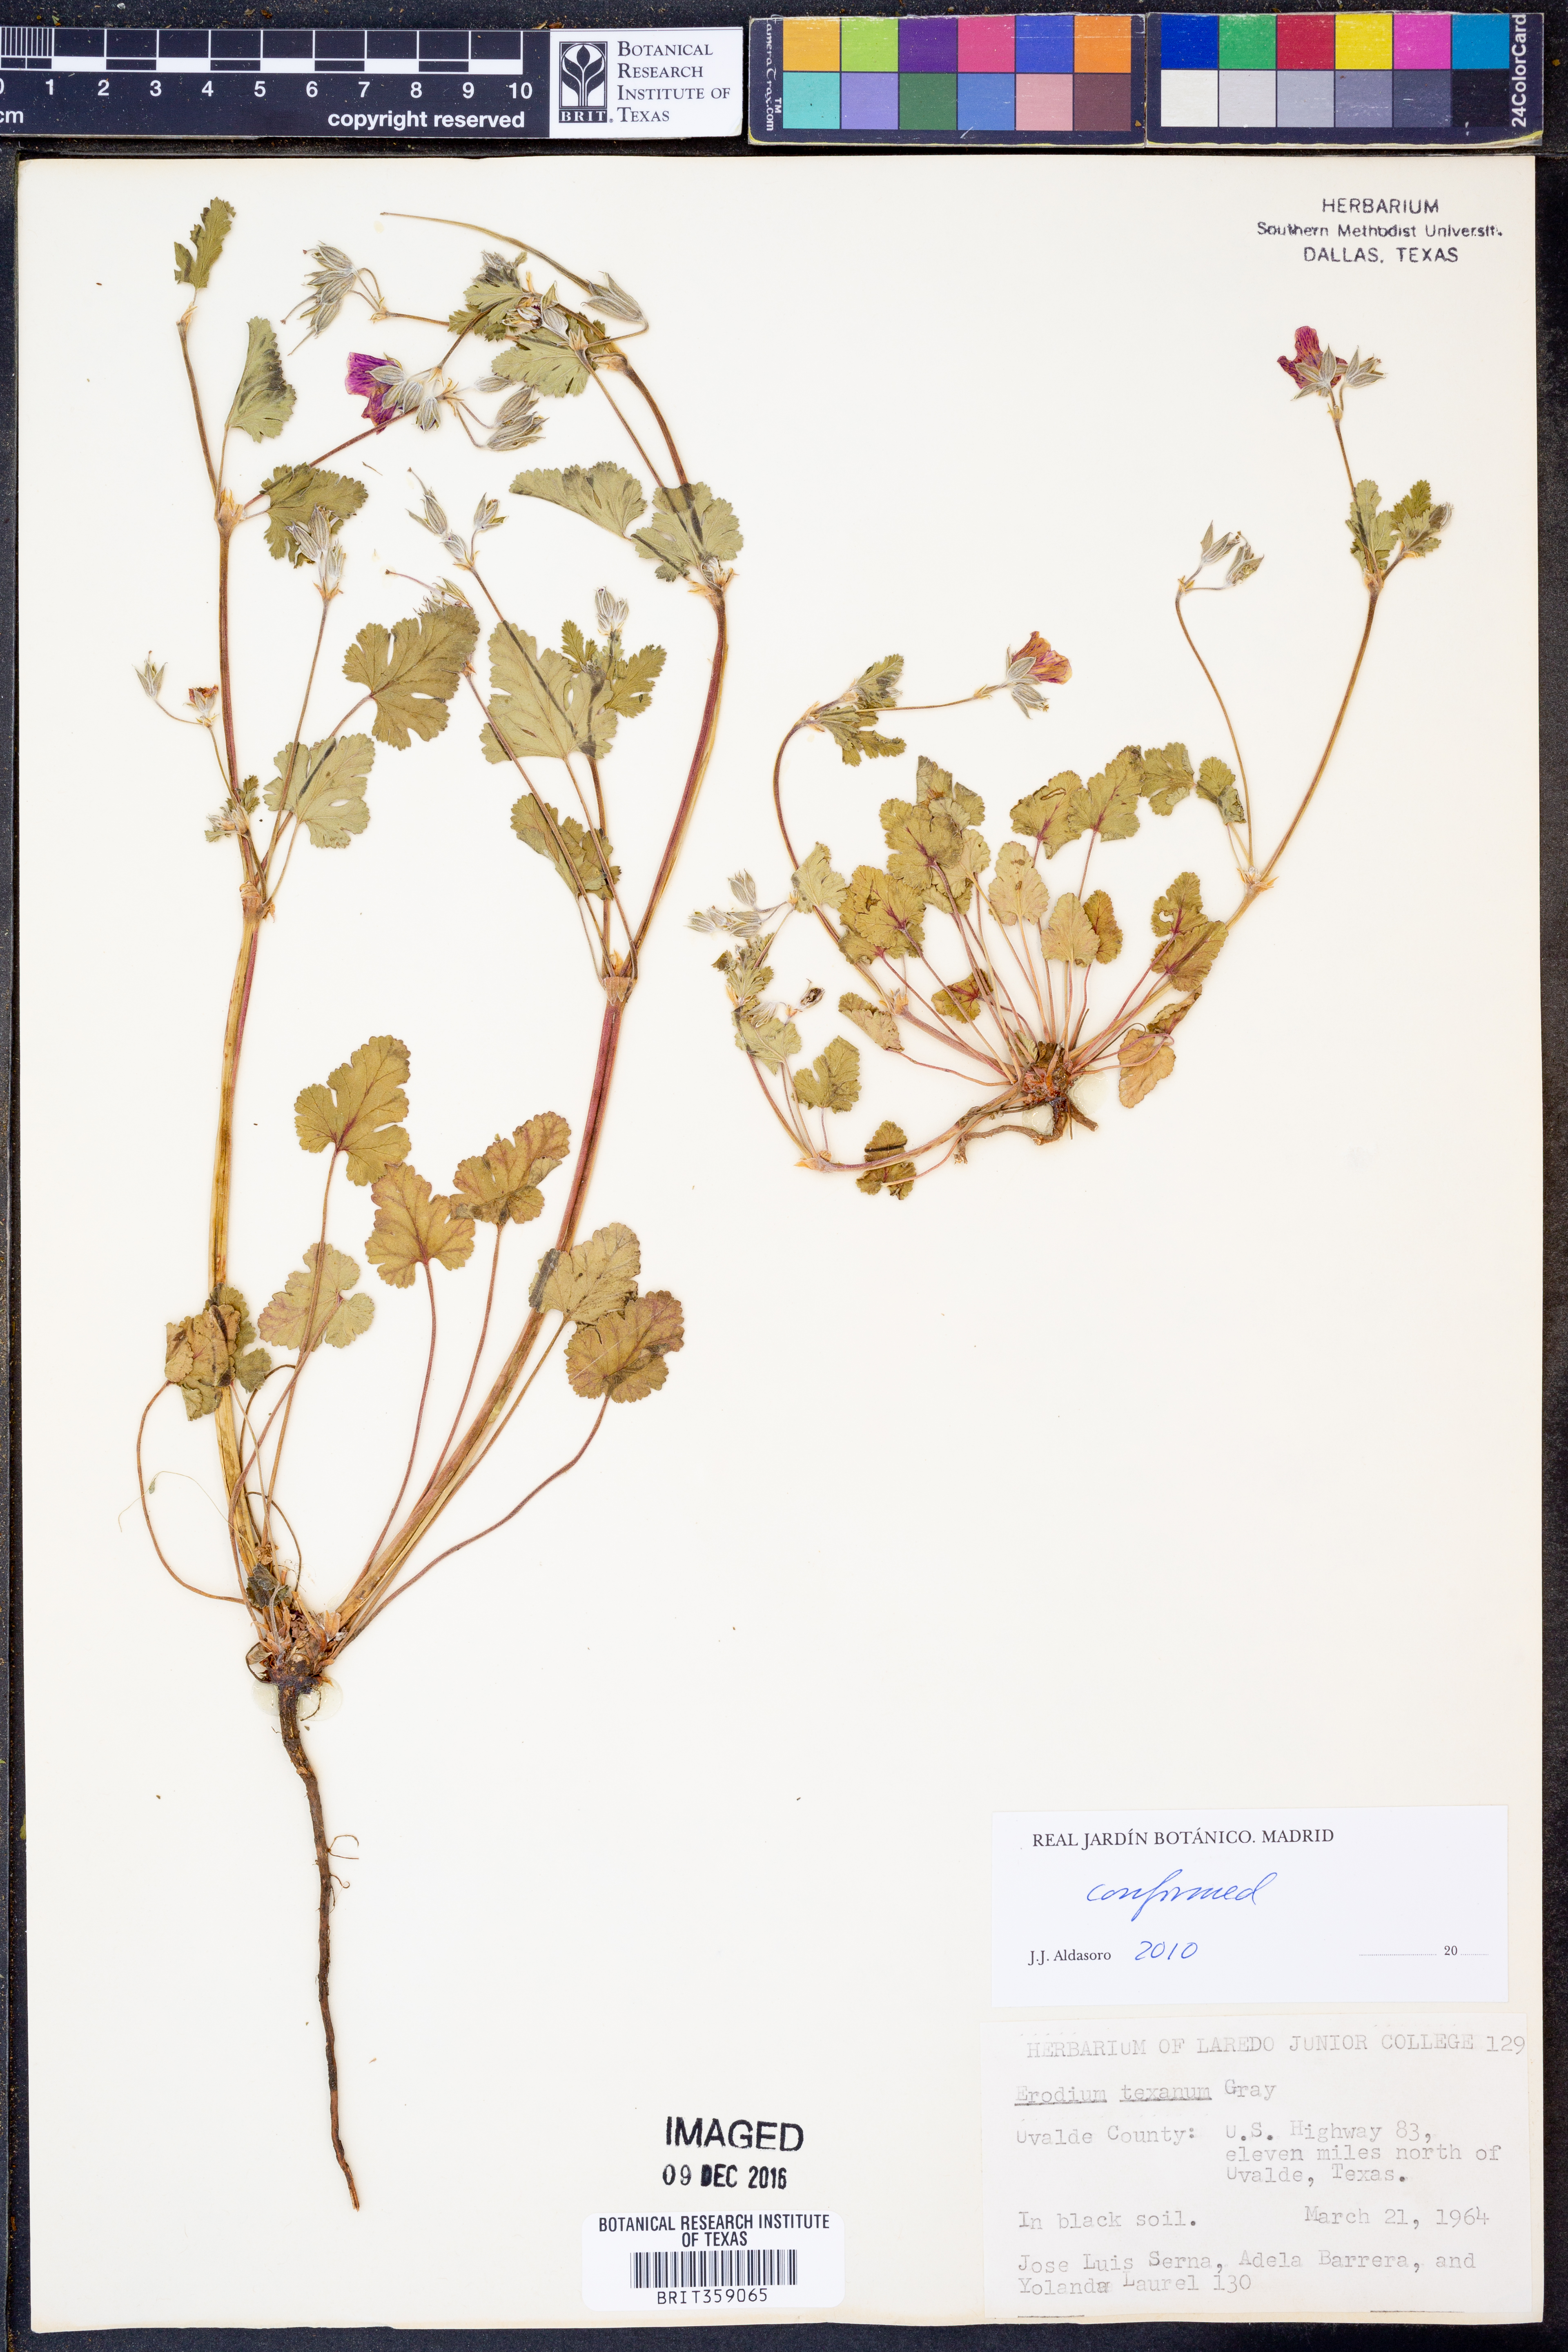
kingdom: Plantae
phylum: Tracheophyta
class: Magnoliopsida
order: Geraniales
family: Geraniaceae
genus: Erodium
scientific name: Erodium texanum
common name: Texas stork's-bill
